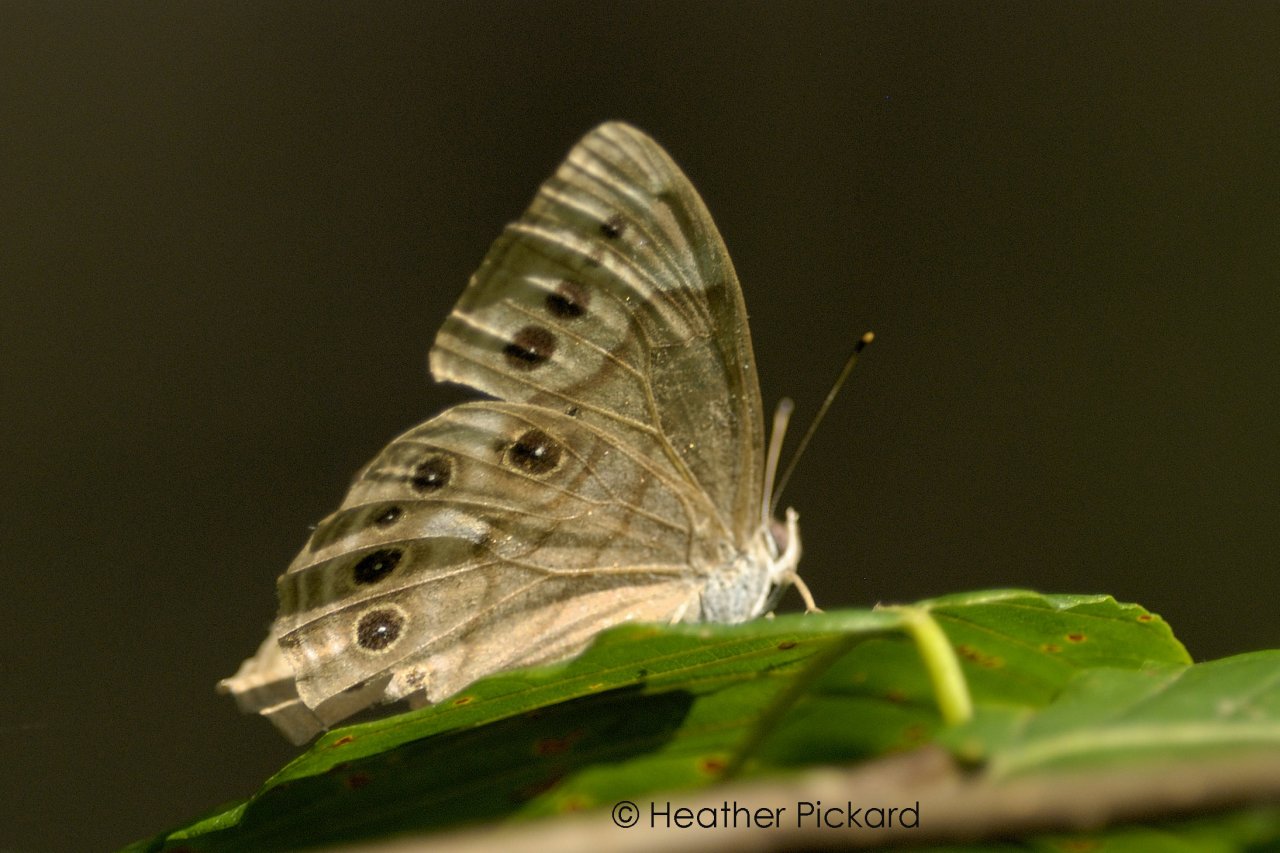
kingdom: Animalia
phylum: Arthropoda
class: Insecta
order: Lepidoptera
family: Nymphalidae
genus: Lethe
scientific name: Lethe anthedon
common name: Northern Pearly-Eye
